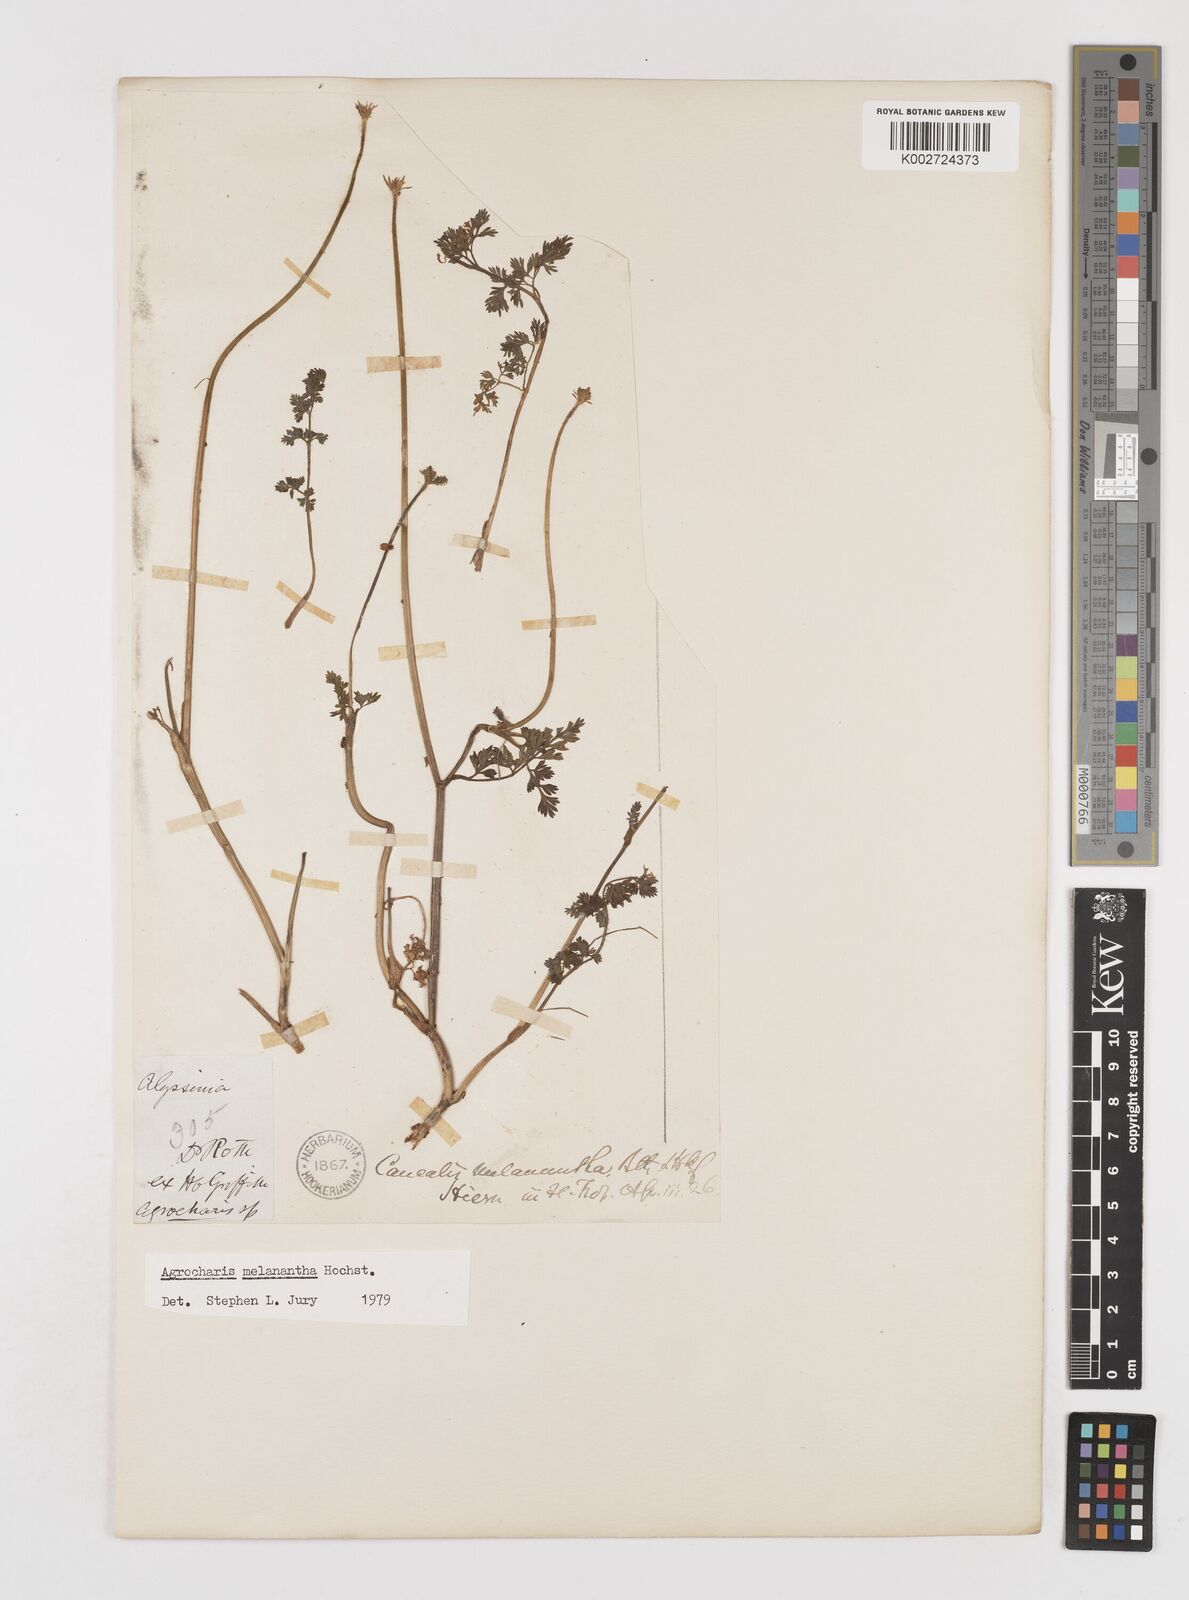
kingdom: Plantae
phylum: Tracheophyta
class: Magnoliopsida
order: Apiales
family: Apiaceae
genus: Daucus
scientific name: Daucus melananthus
